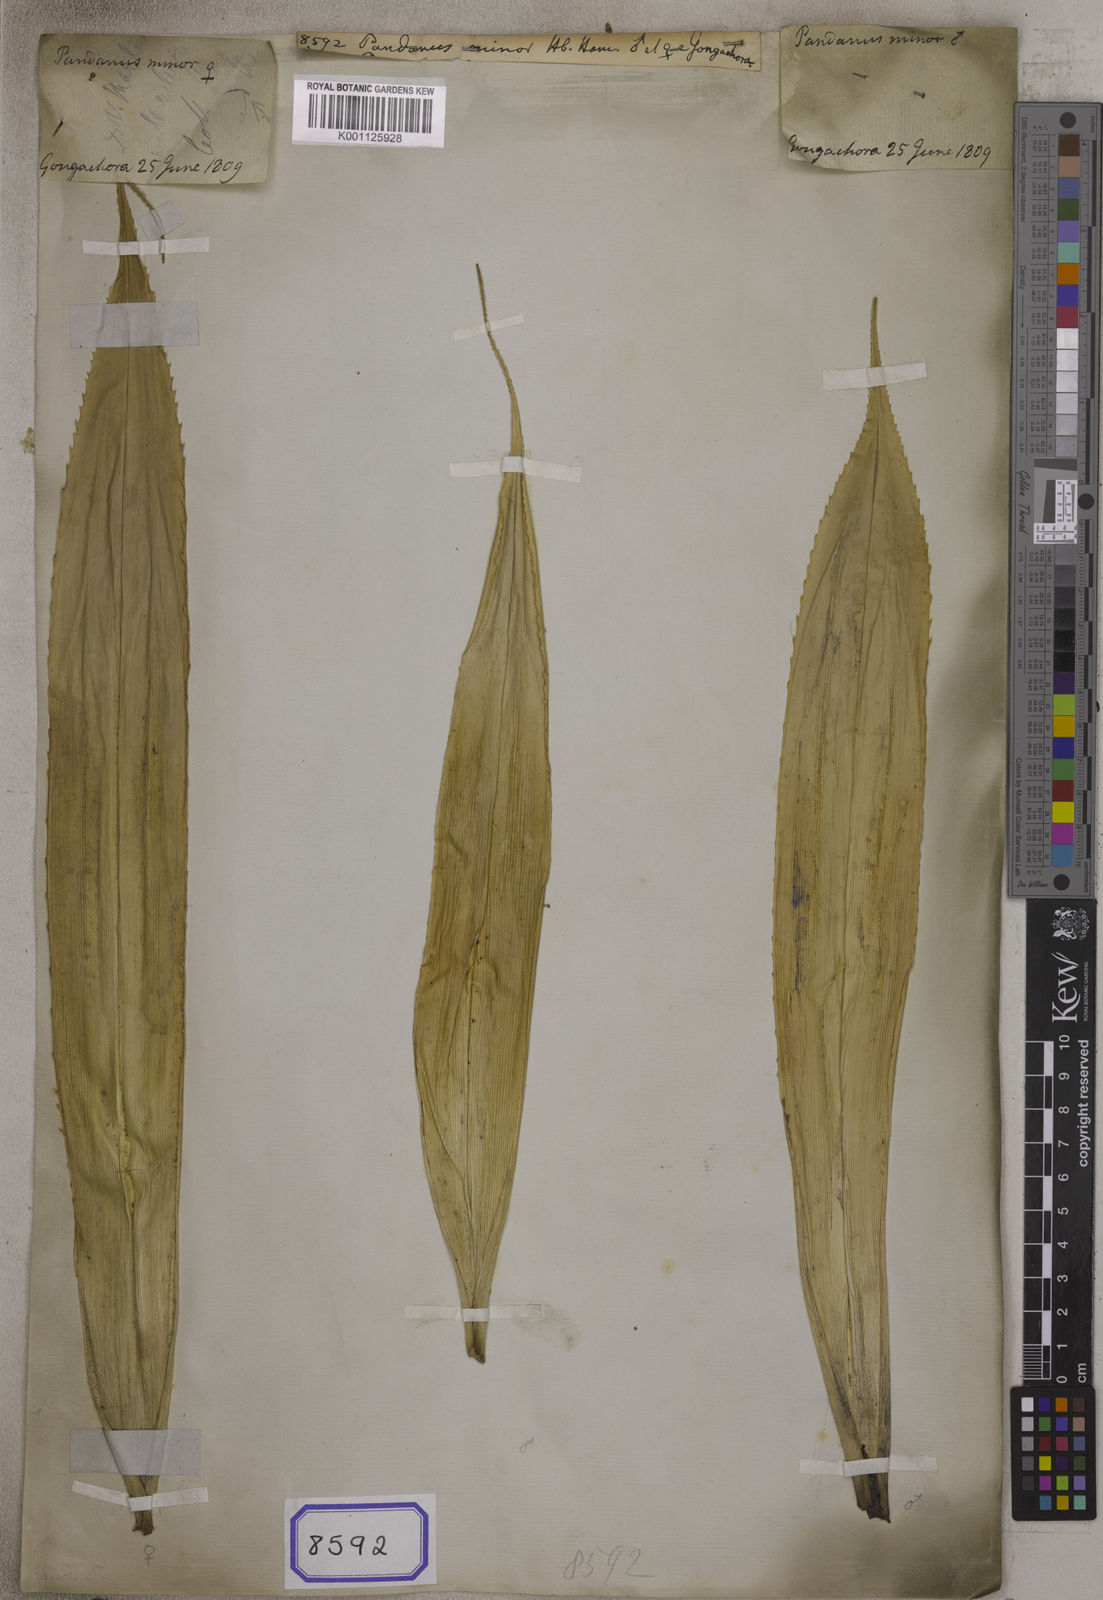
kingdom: Plantae
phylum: Tracheophyta
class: Liliopsida
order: Pandanales
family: Pandanaceae
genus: Pandanus
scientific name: Pandanus
